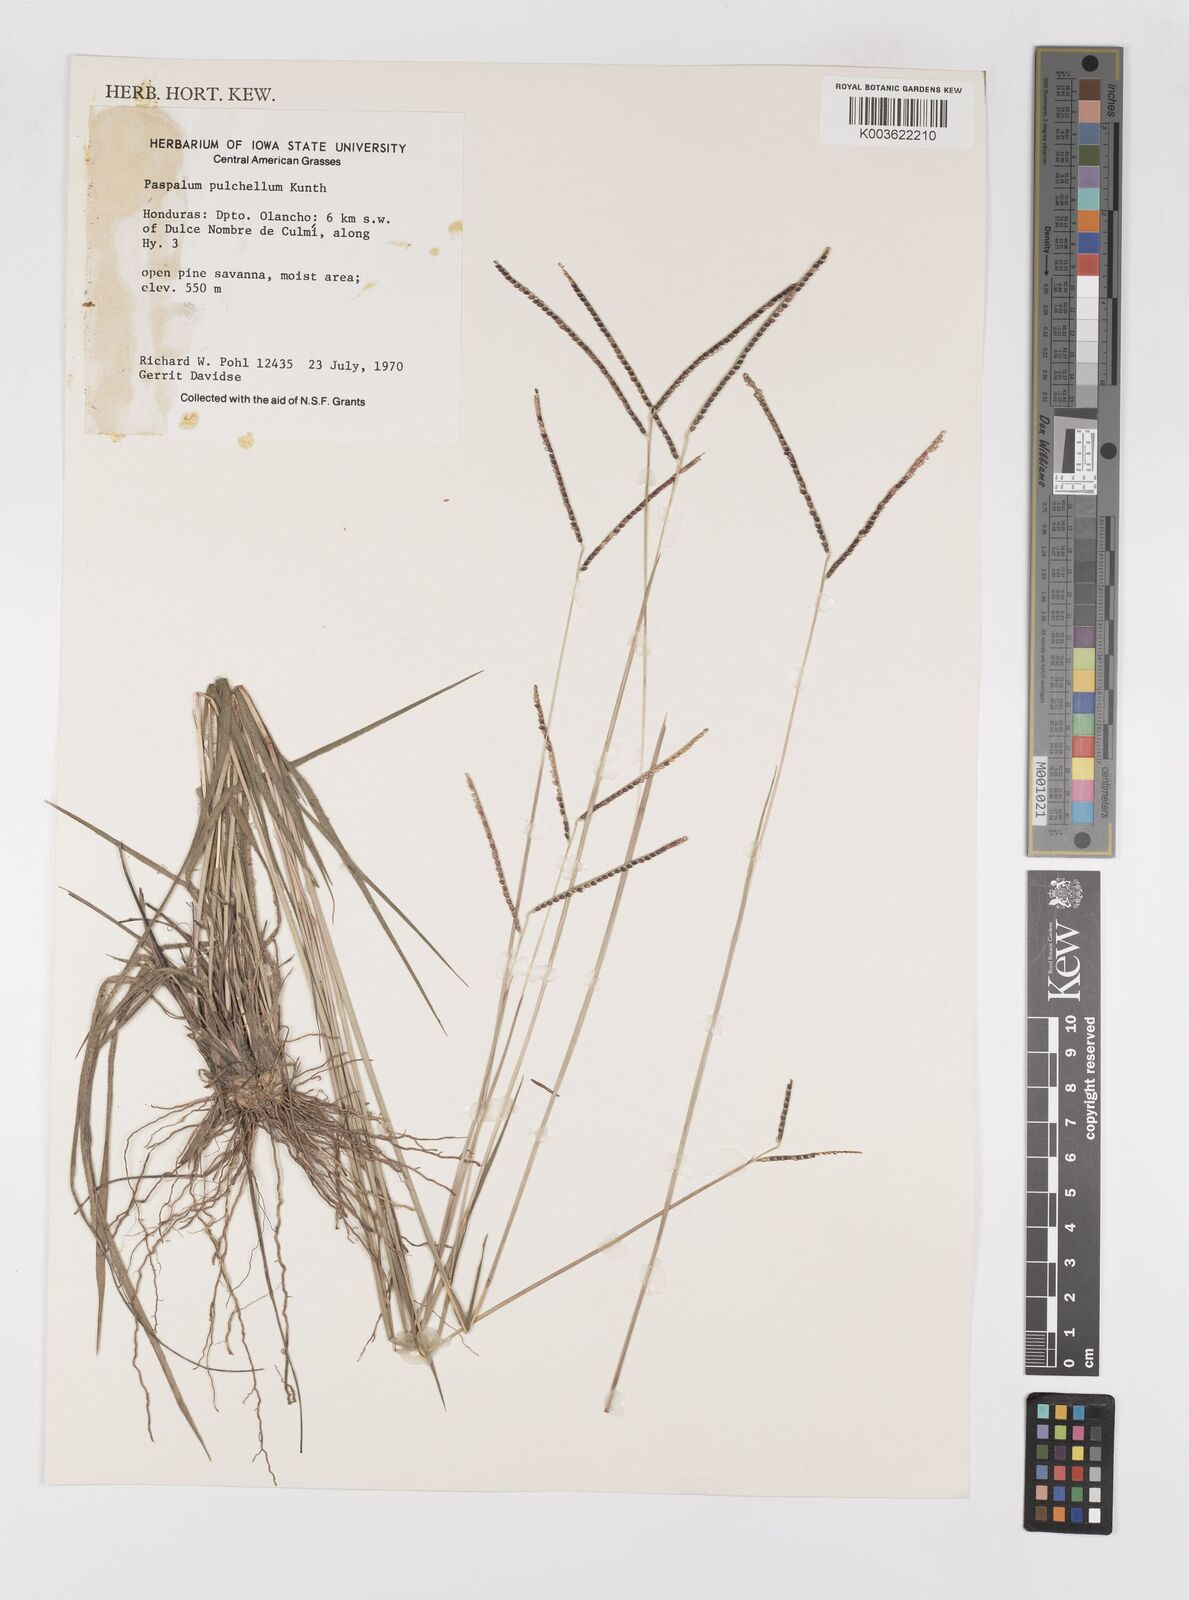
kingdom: Plantae
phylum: Tracheophyta
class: Liliopsida
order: Poales
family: Poaceae
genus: Paspalum
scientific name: Paspalum pulchellum
